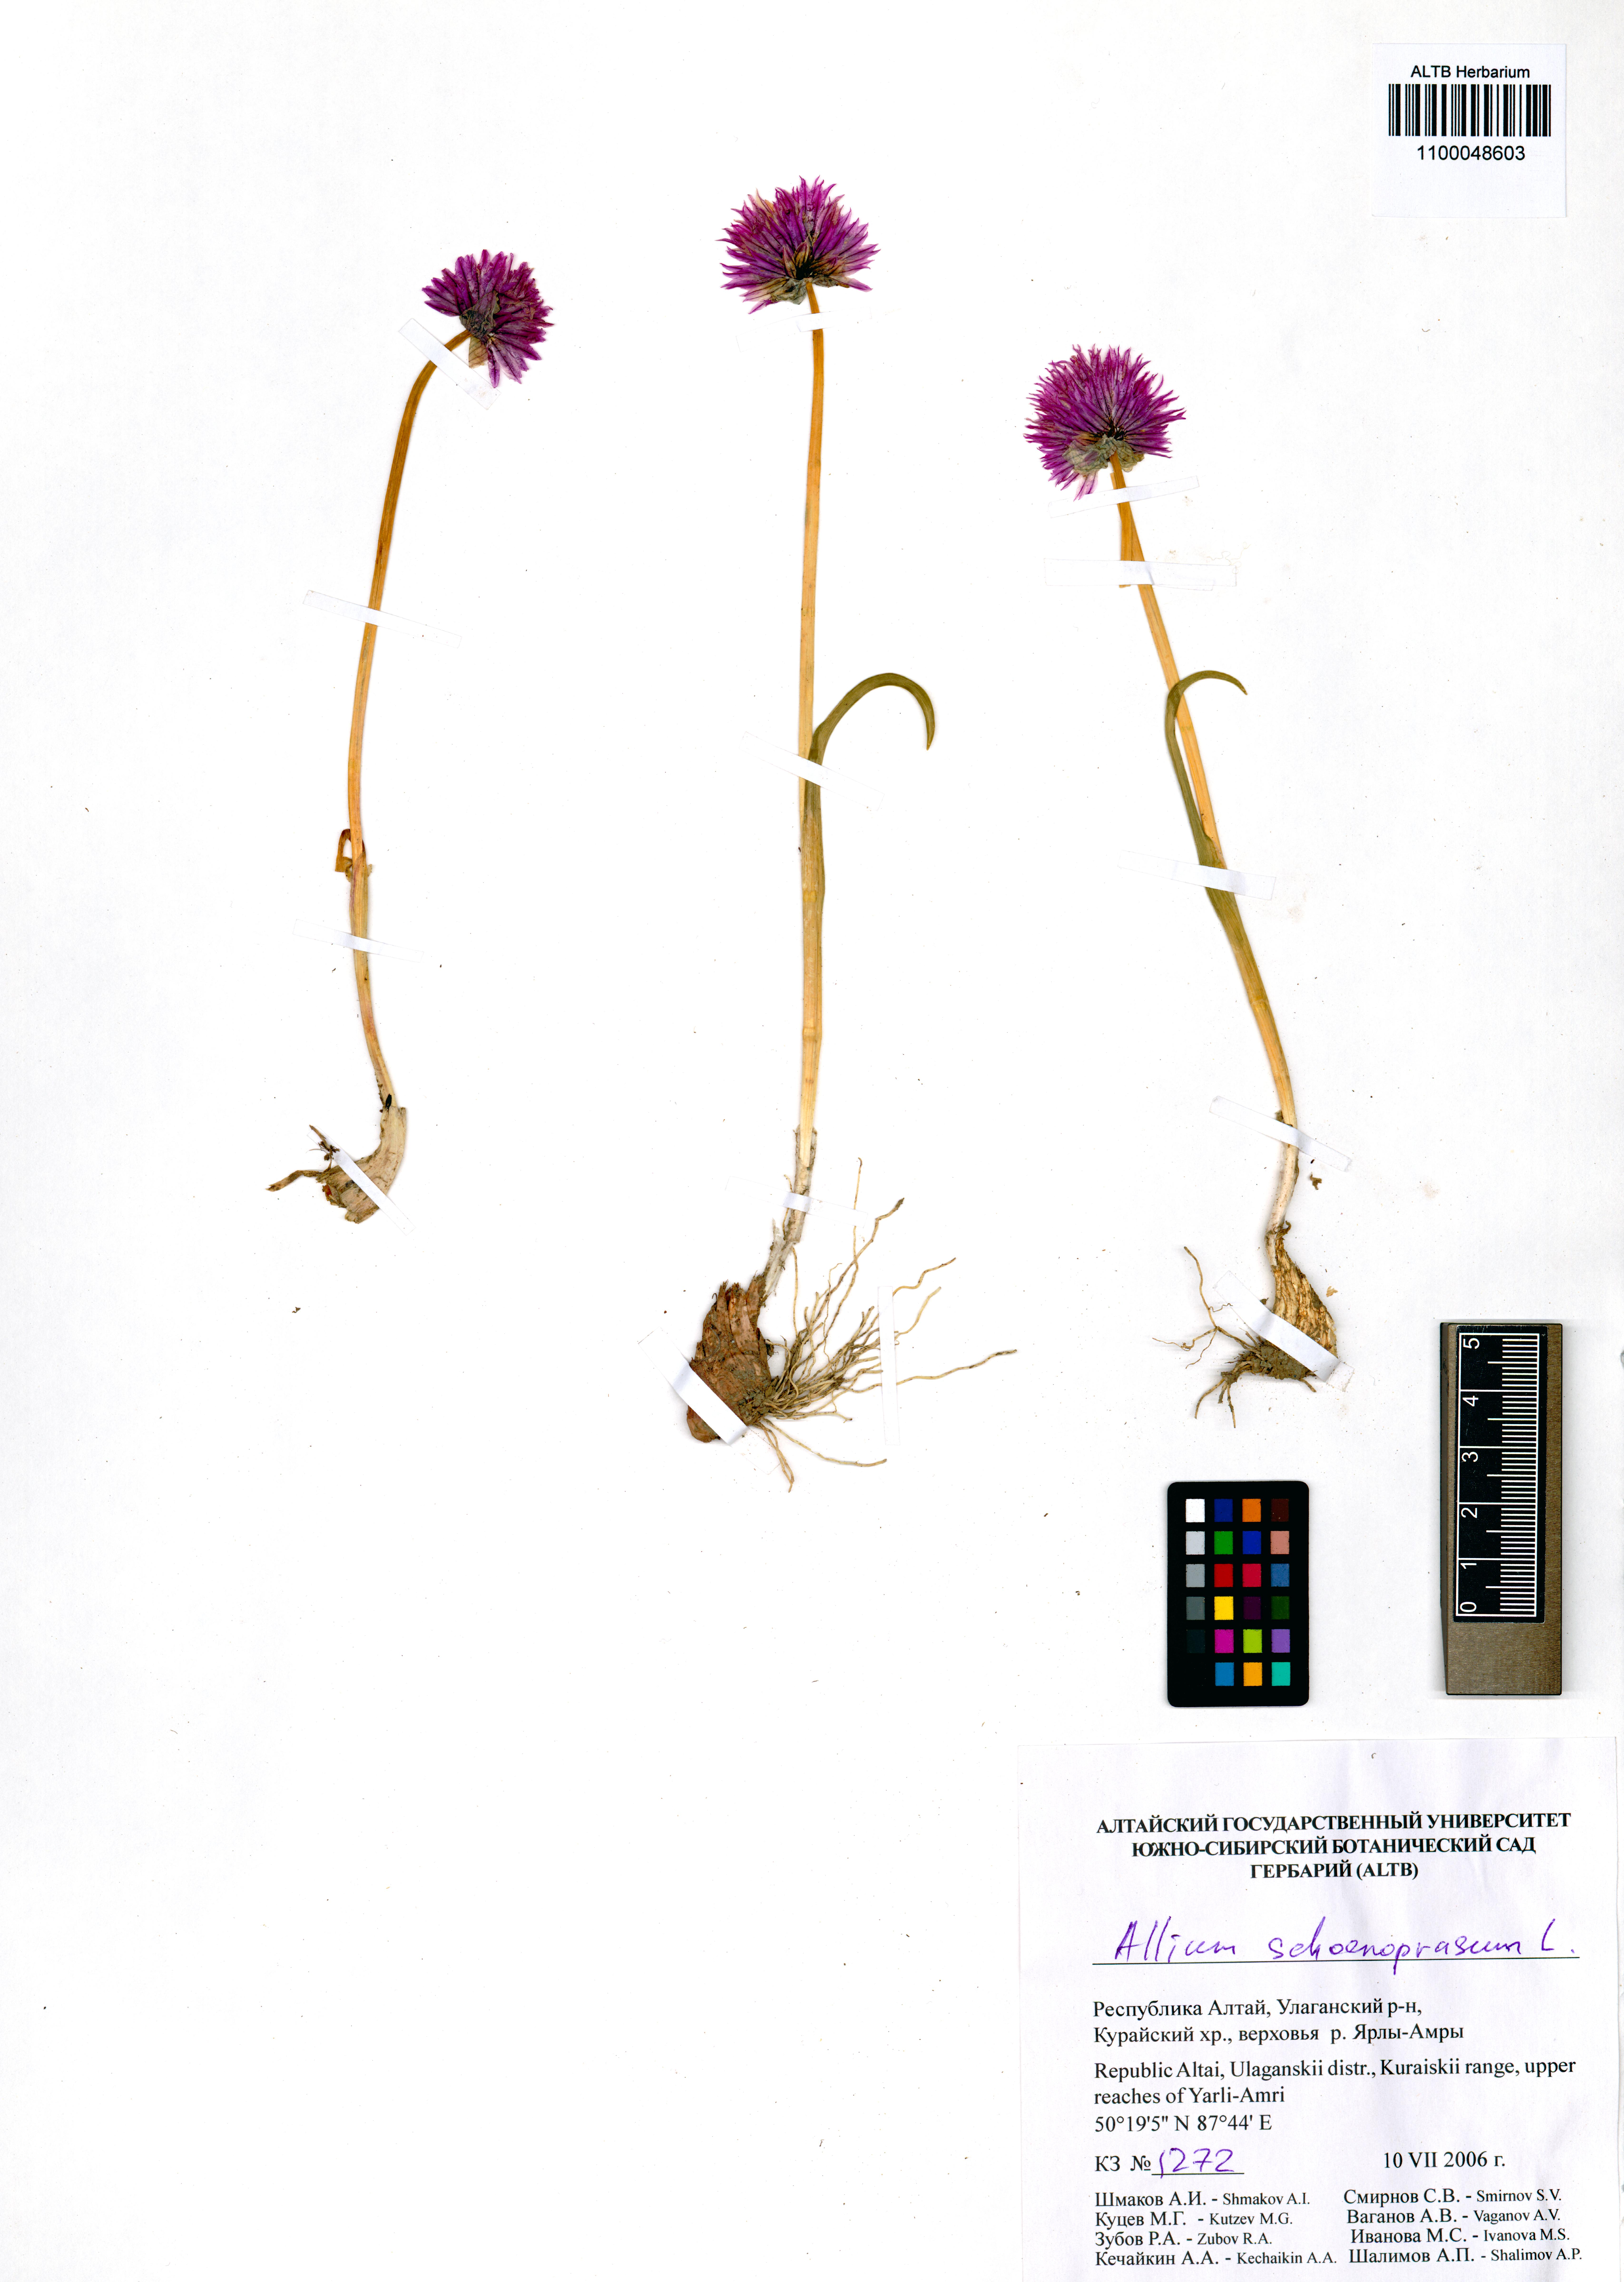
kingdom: Plantae
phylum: Tracheophyta
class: Liliopsida
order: Asparagales
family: Amaryllidaceae
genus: Allium
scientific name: Allium schoenoprasum
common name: Chives
